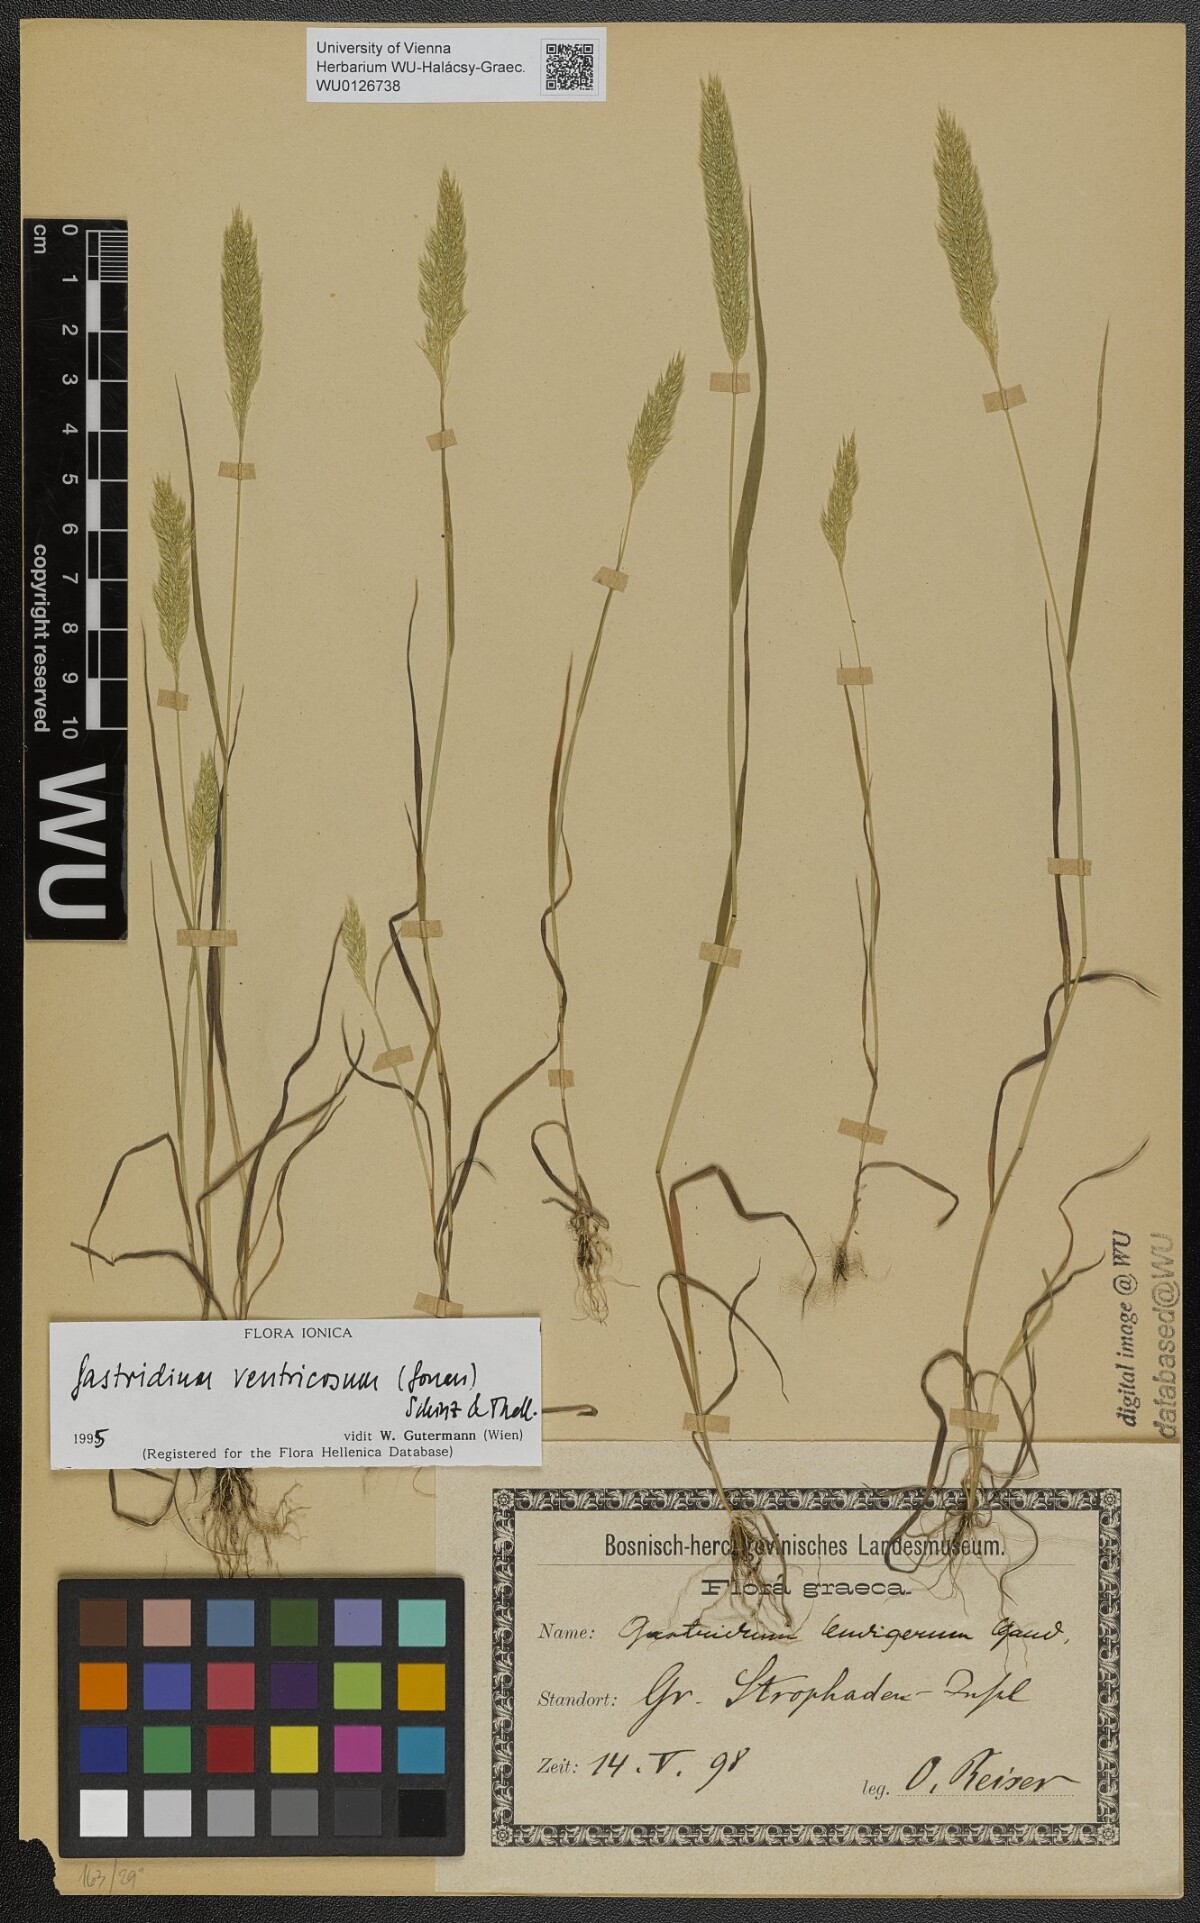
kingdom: Plantae
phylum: Tracheophyta
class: Liliopsida
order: Poales
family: Poaceae
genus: Gastridium
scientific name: Gastridium ventricosum
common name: Nit-grass
